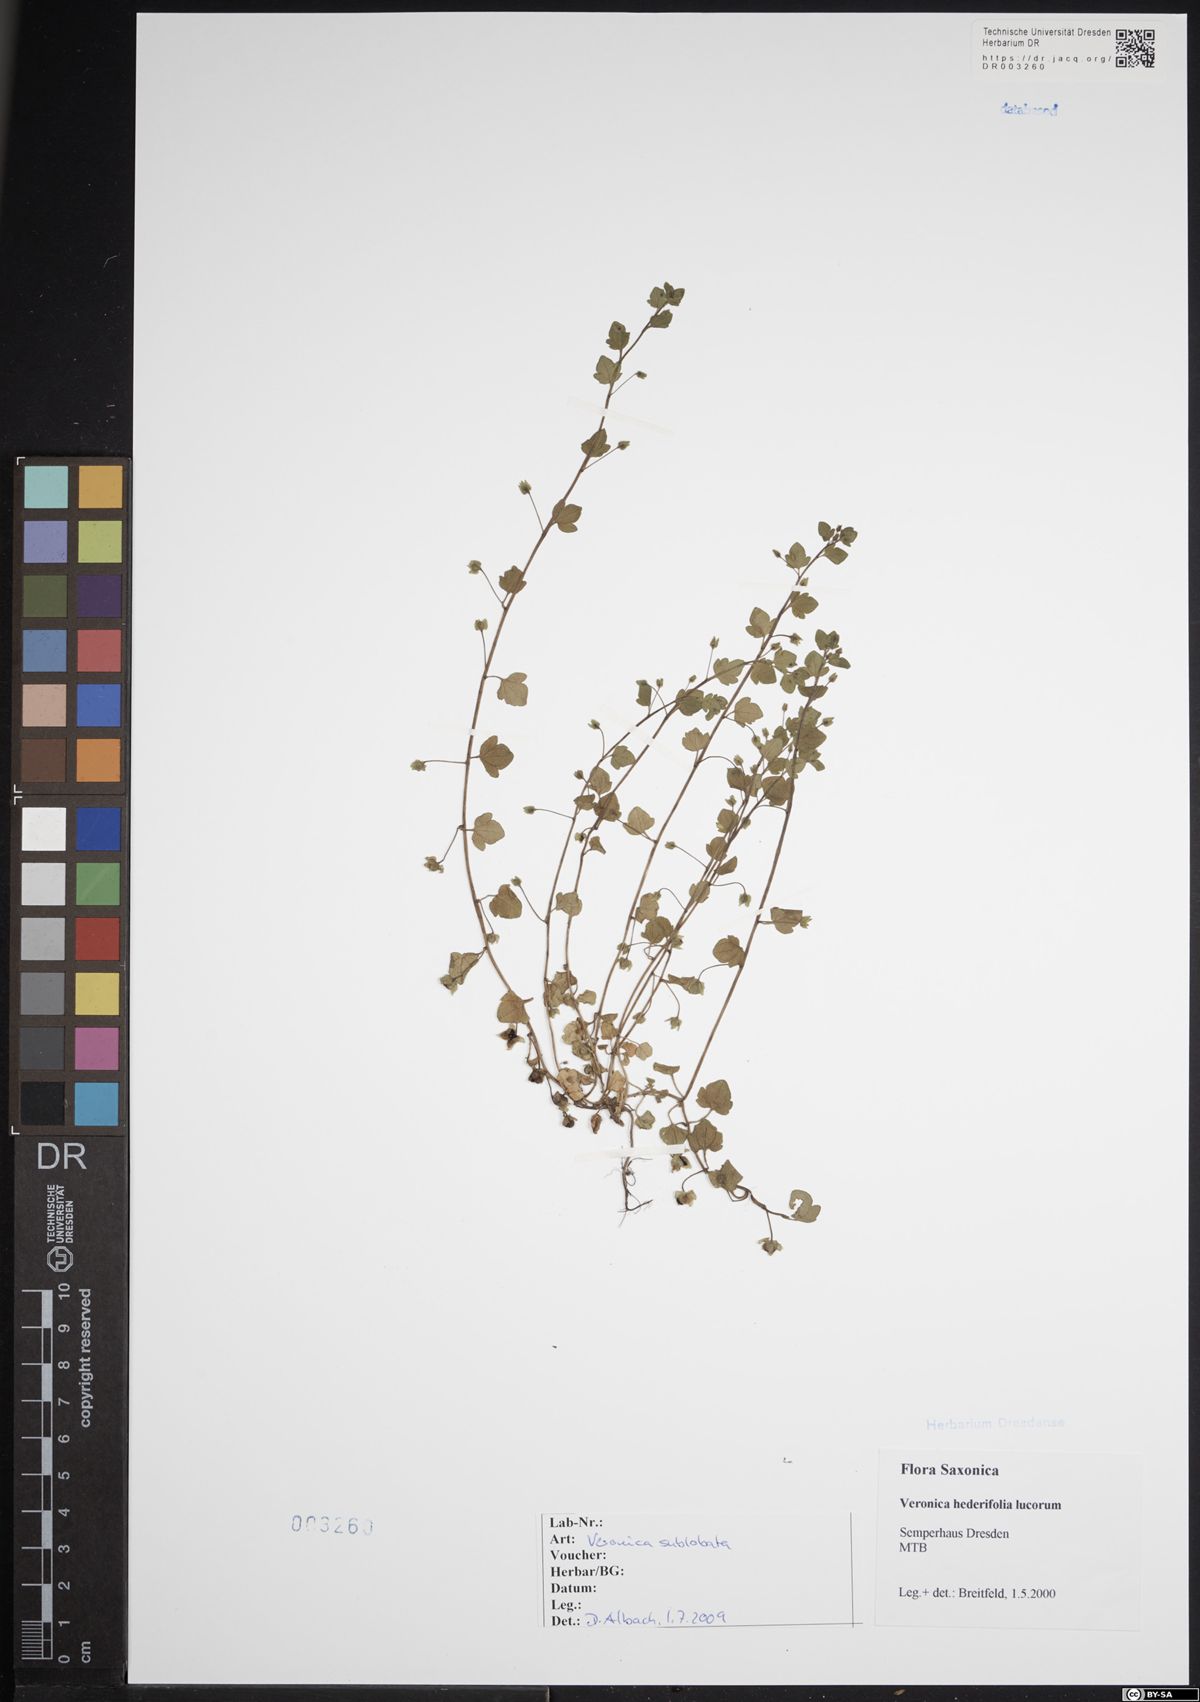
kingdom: Plantae
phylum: Tracheophyta
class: Magnoliopsida
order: Lamiales
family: Plantaginaceae
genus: Veronica
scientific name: Veronica sublobata
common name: False ivy-leaved speedwell
